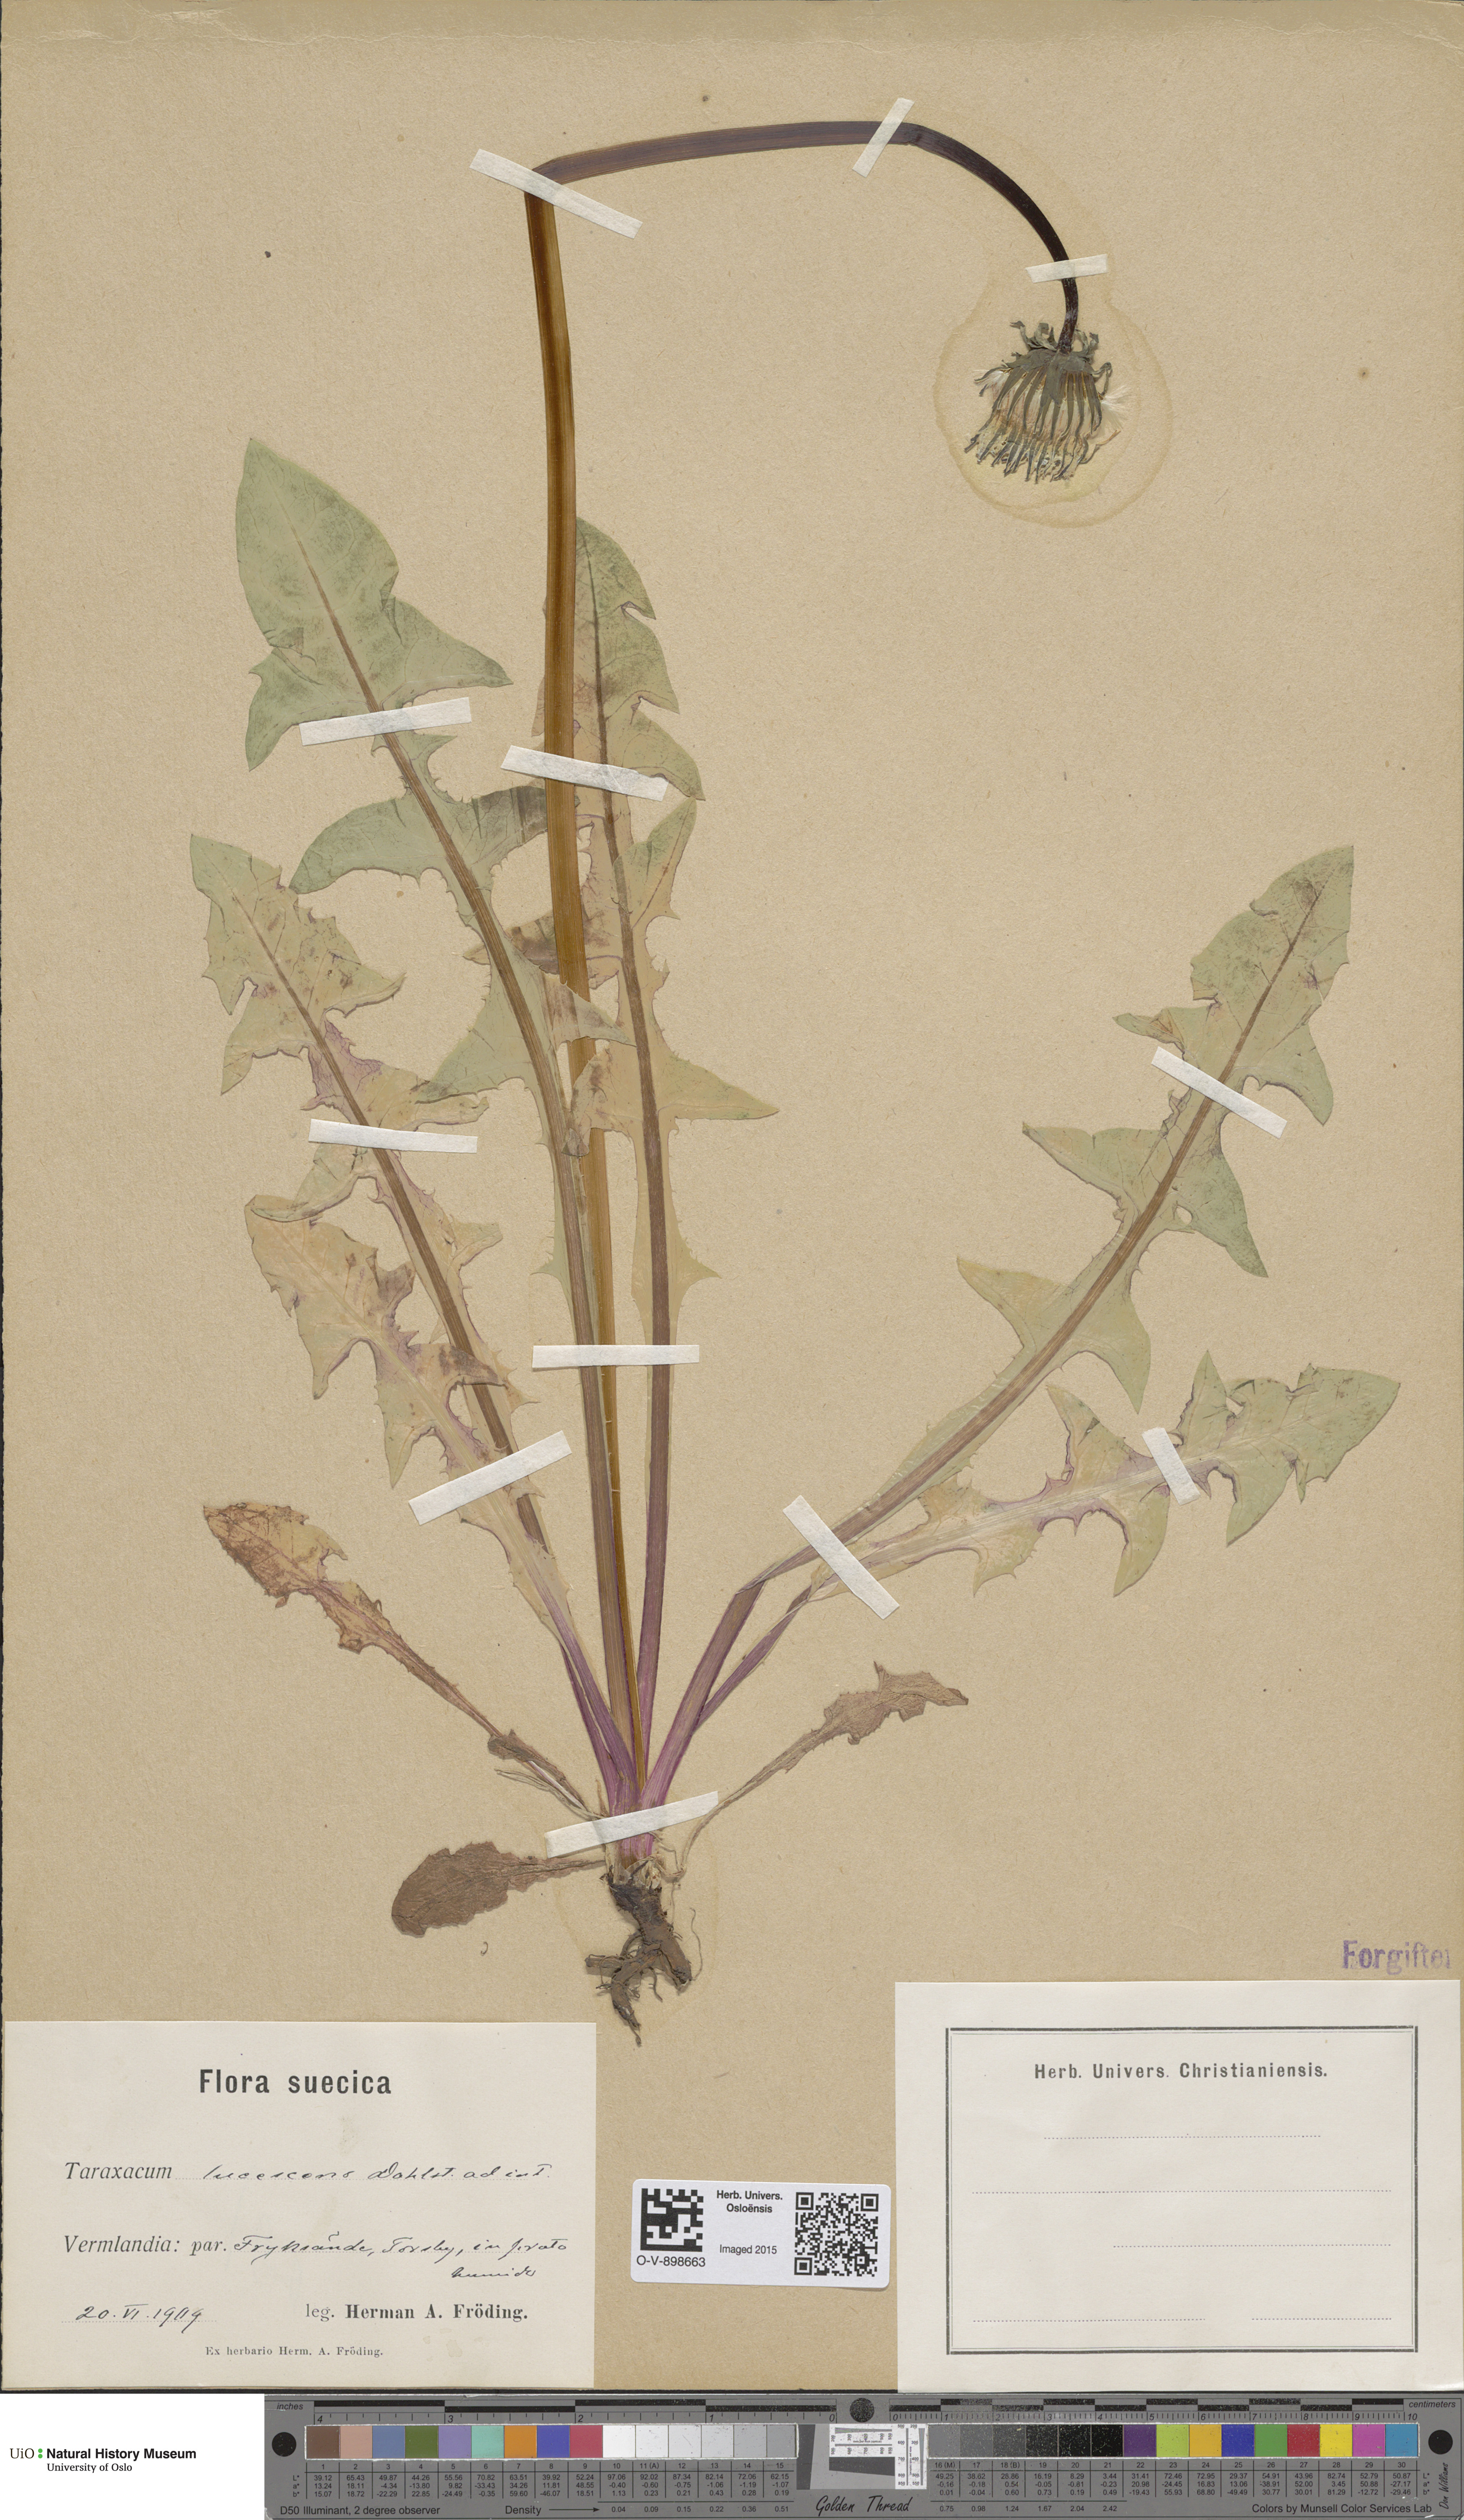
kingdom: Plantae
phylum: Tracheophyta
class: Magnoliopsida
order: Asterales
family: Asteraceae
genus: Taraxacum
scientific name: Taraxacum lucescens
